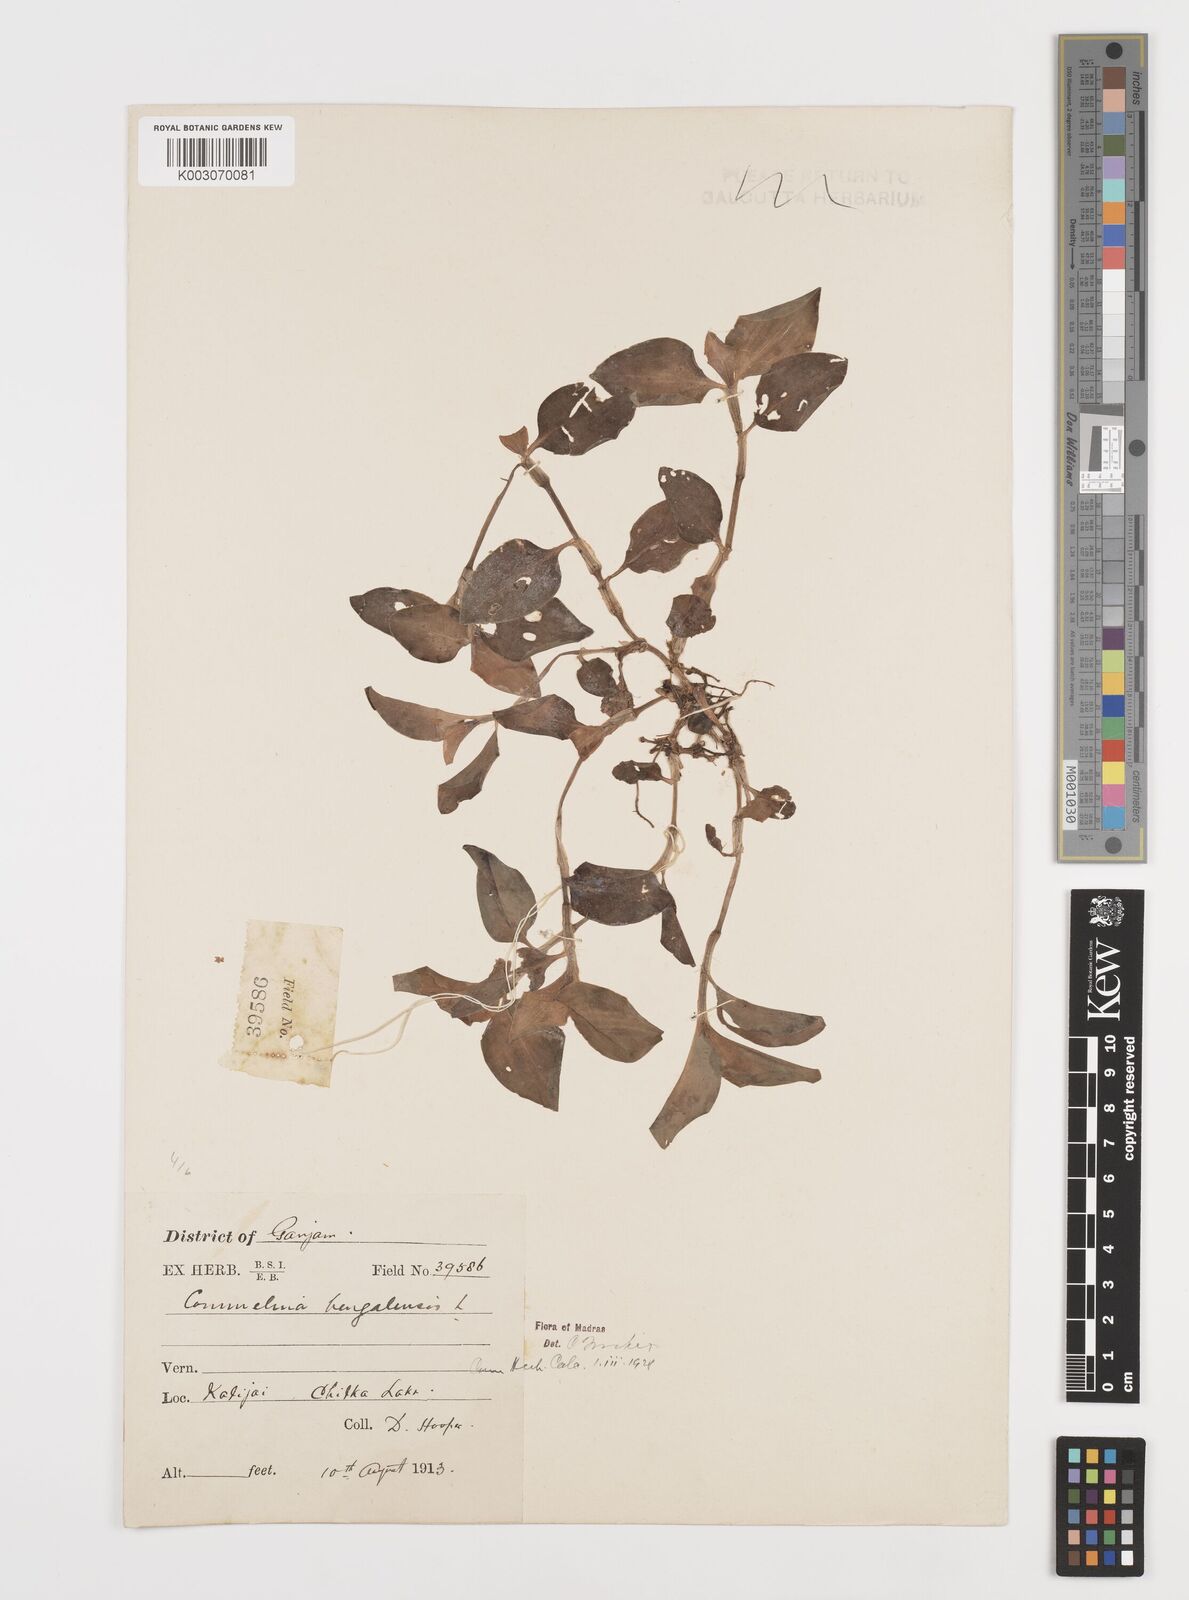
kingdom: Plantae
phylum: Tracheophyta
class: Liliopsida
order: Commelinales
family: Commelinaceae
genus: Commelina
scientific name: Commelina benghalensis
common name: Jio
